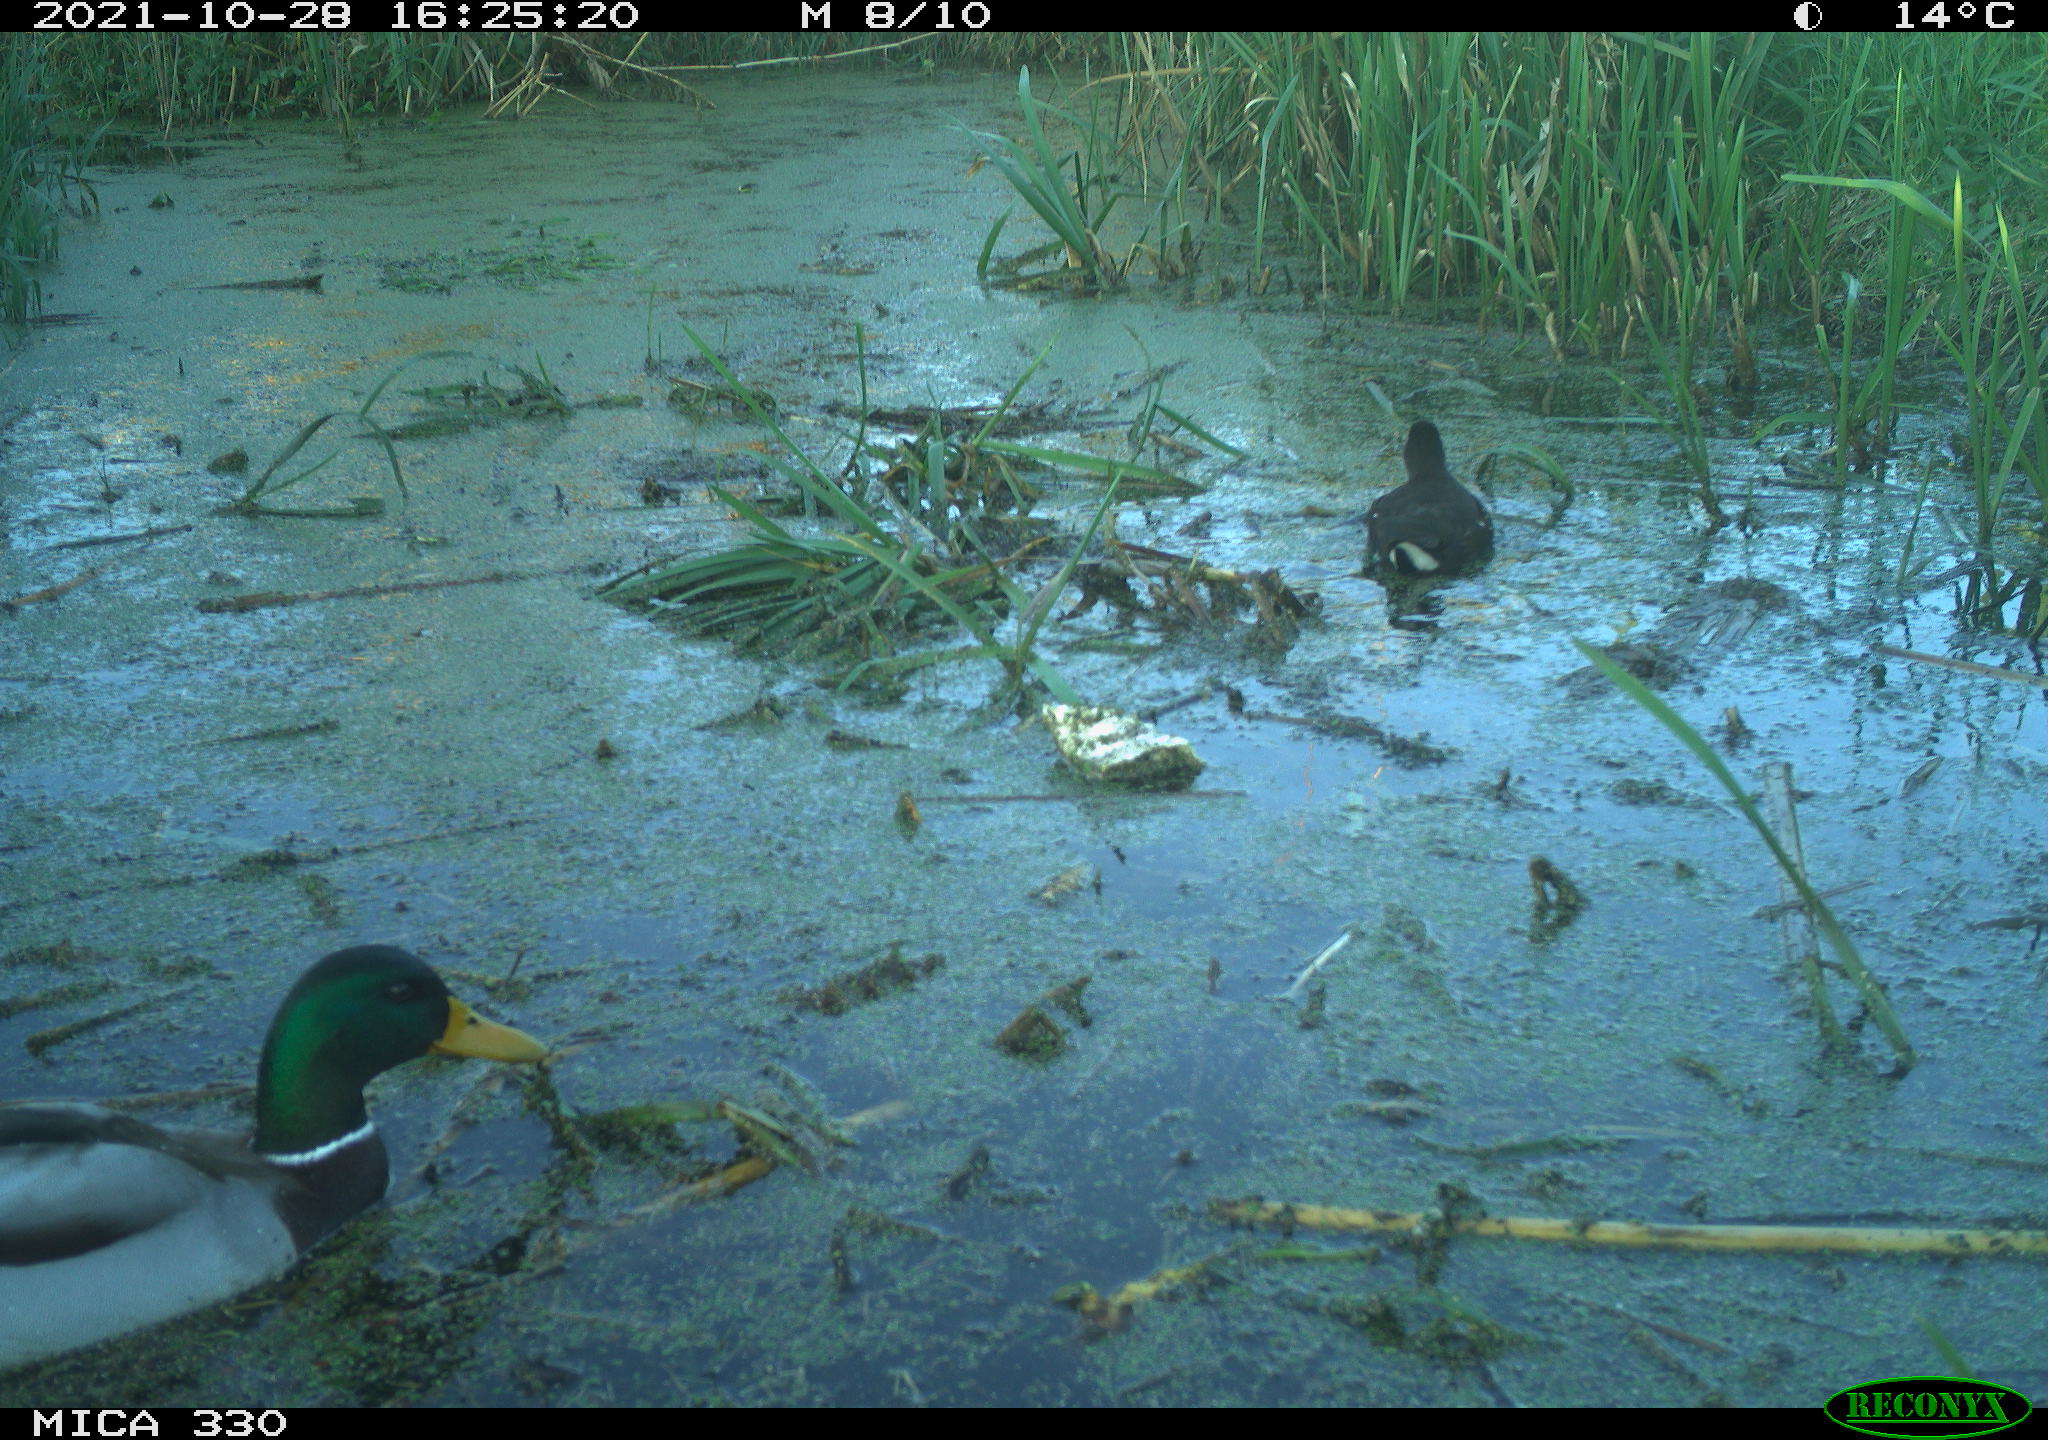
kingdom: Animalia
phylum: Chordata
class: Aves
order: Gruiformes
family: Rallidae
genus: Gallinula
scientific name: Gallinula chloropus
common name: Common moorhen
